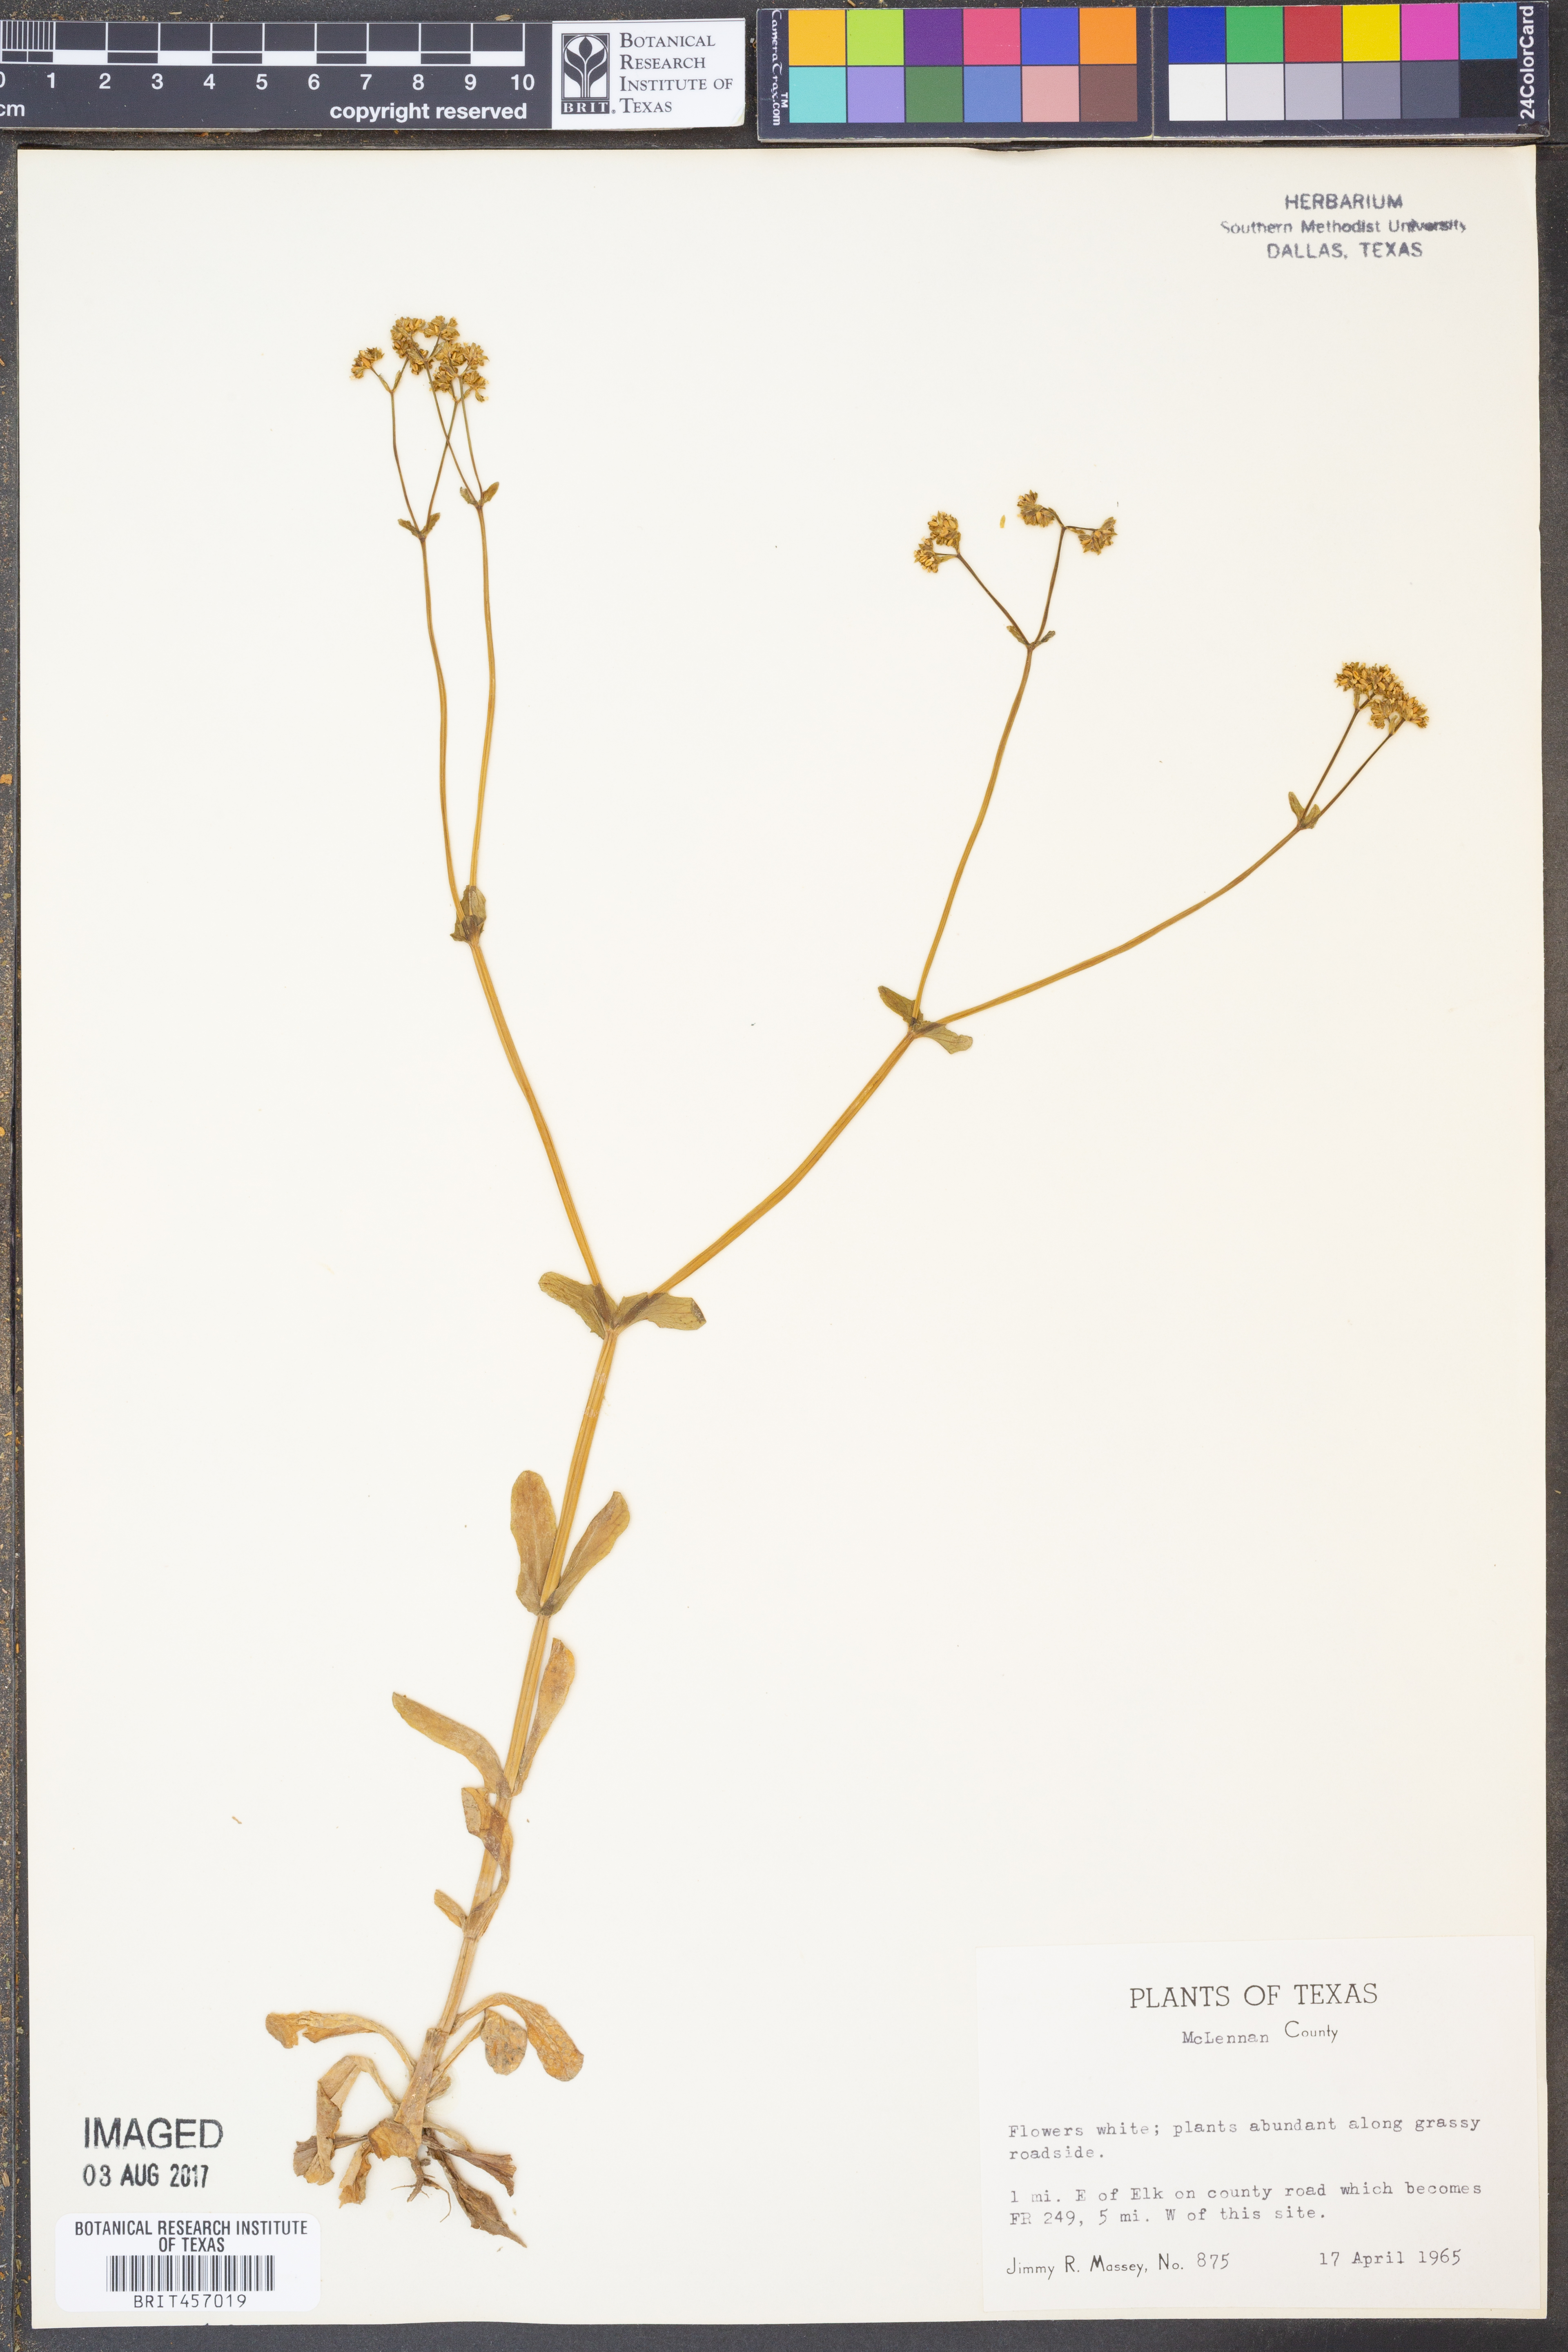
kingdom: Plantae
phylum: Tracheophyta
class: Magnoliopsida
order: Dipsacales
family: Caprifoliaceae
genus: Valerianella
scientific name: Valerianella
